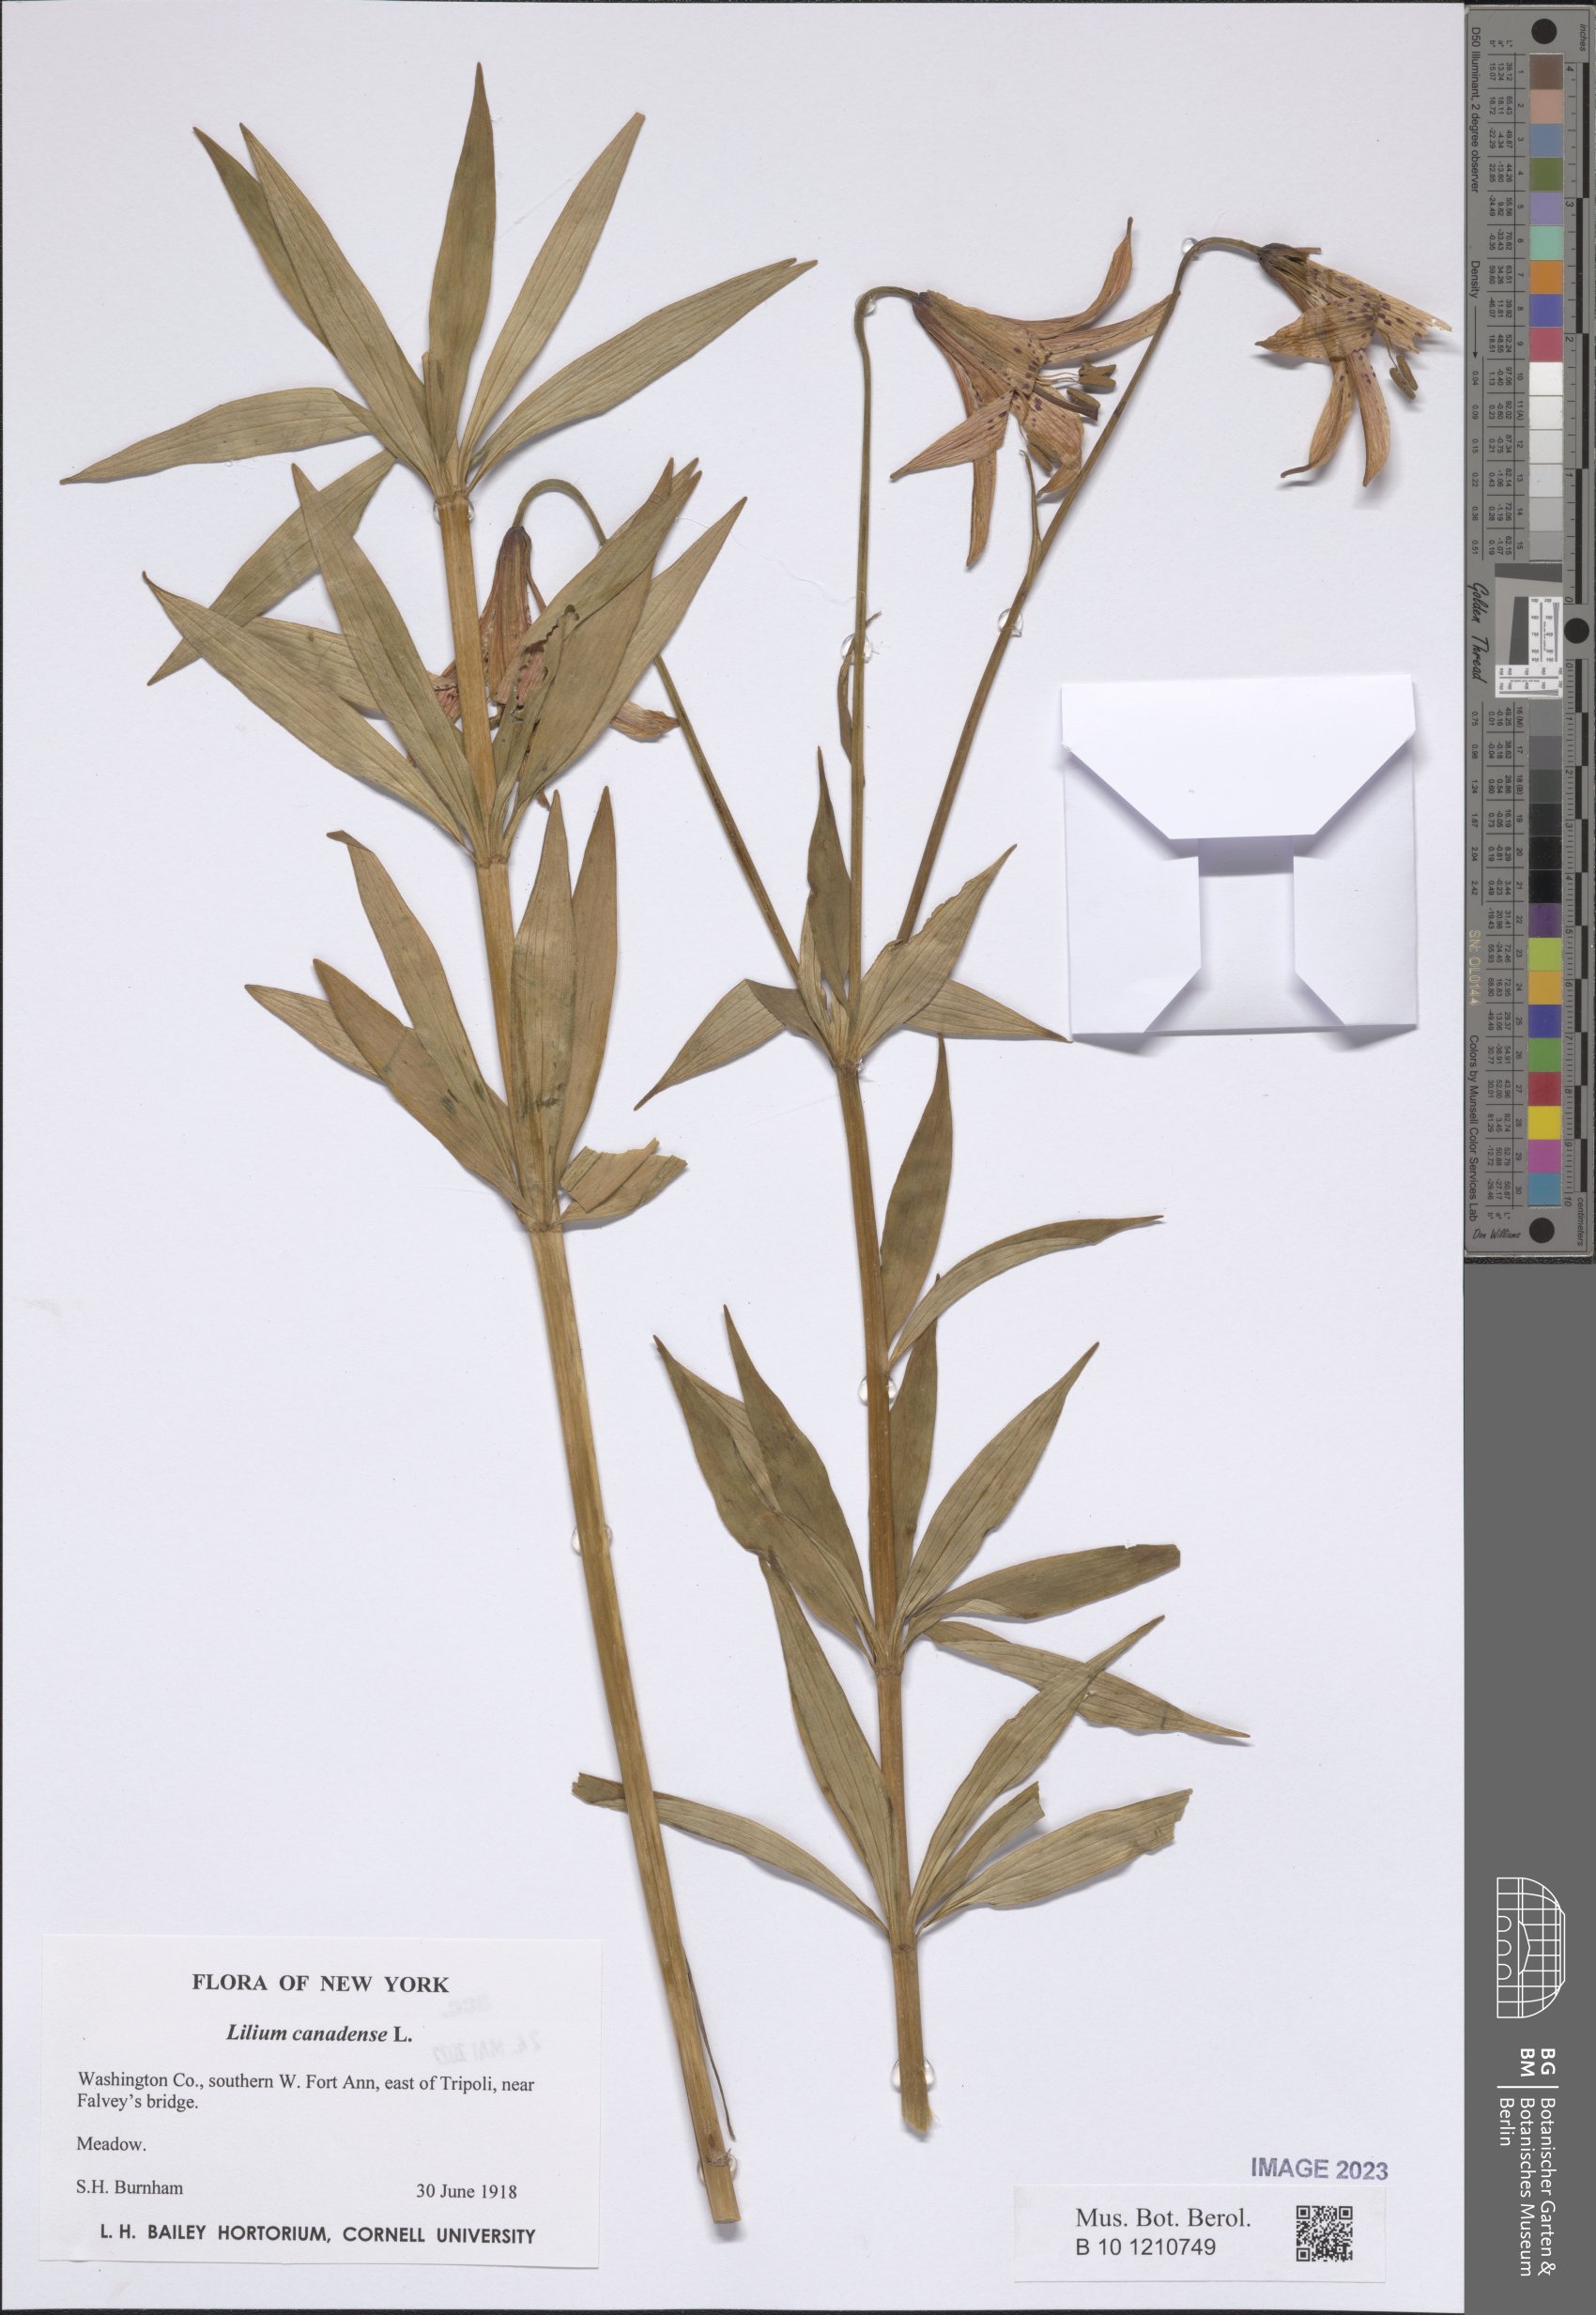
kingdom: Plantae
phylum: Tracheophyta
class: Liliopsida
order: Liliales
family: Liliaceae
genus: Lilium
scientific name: Lilium canadense
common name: Canada lily
